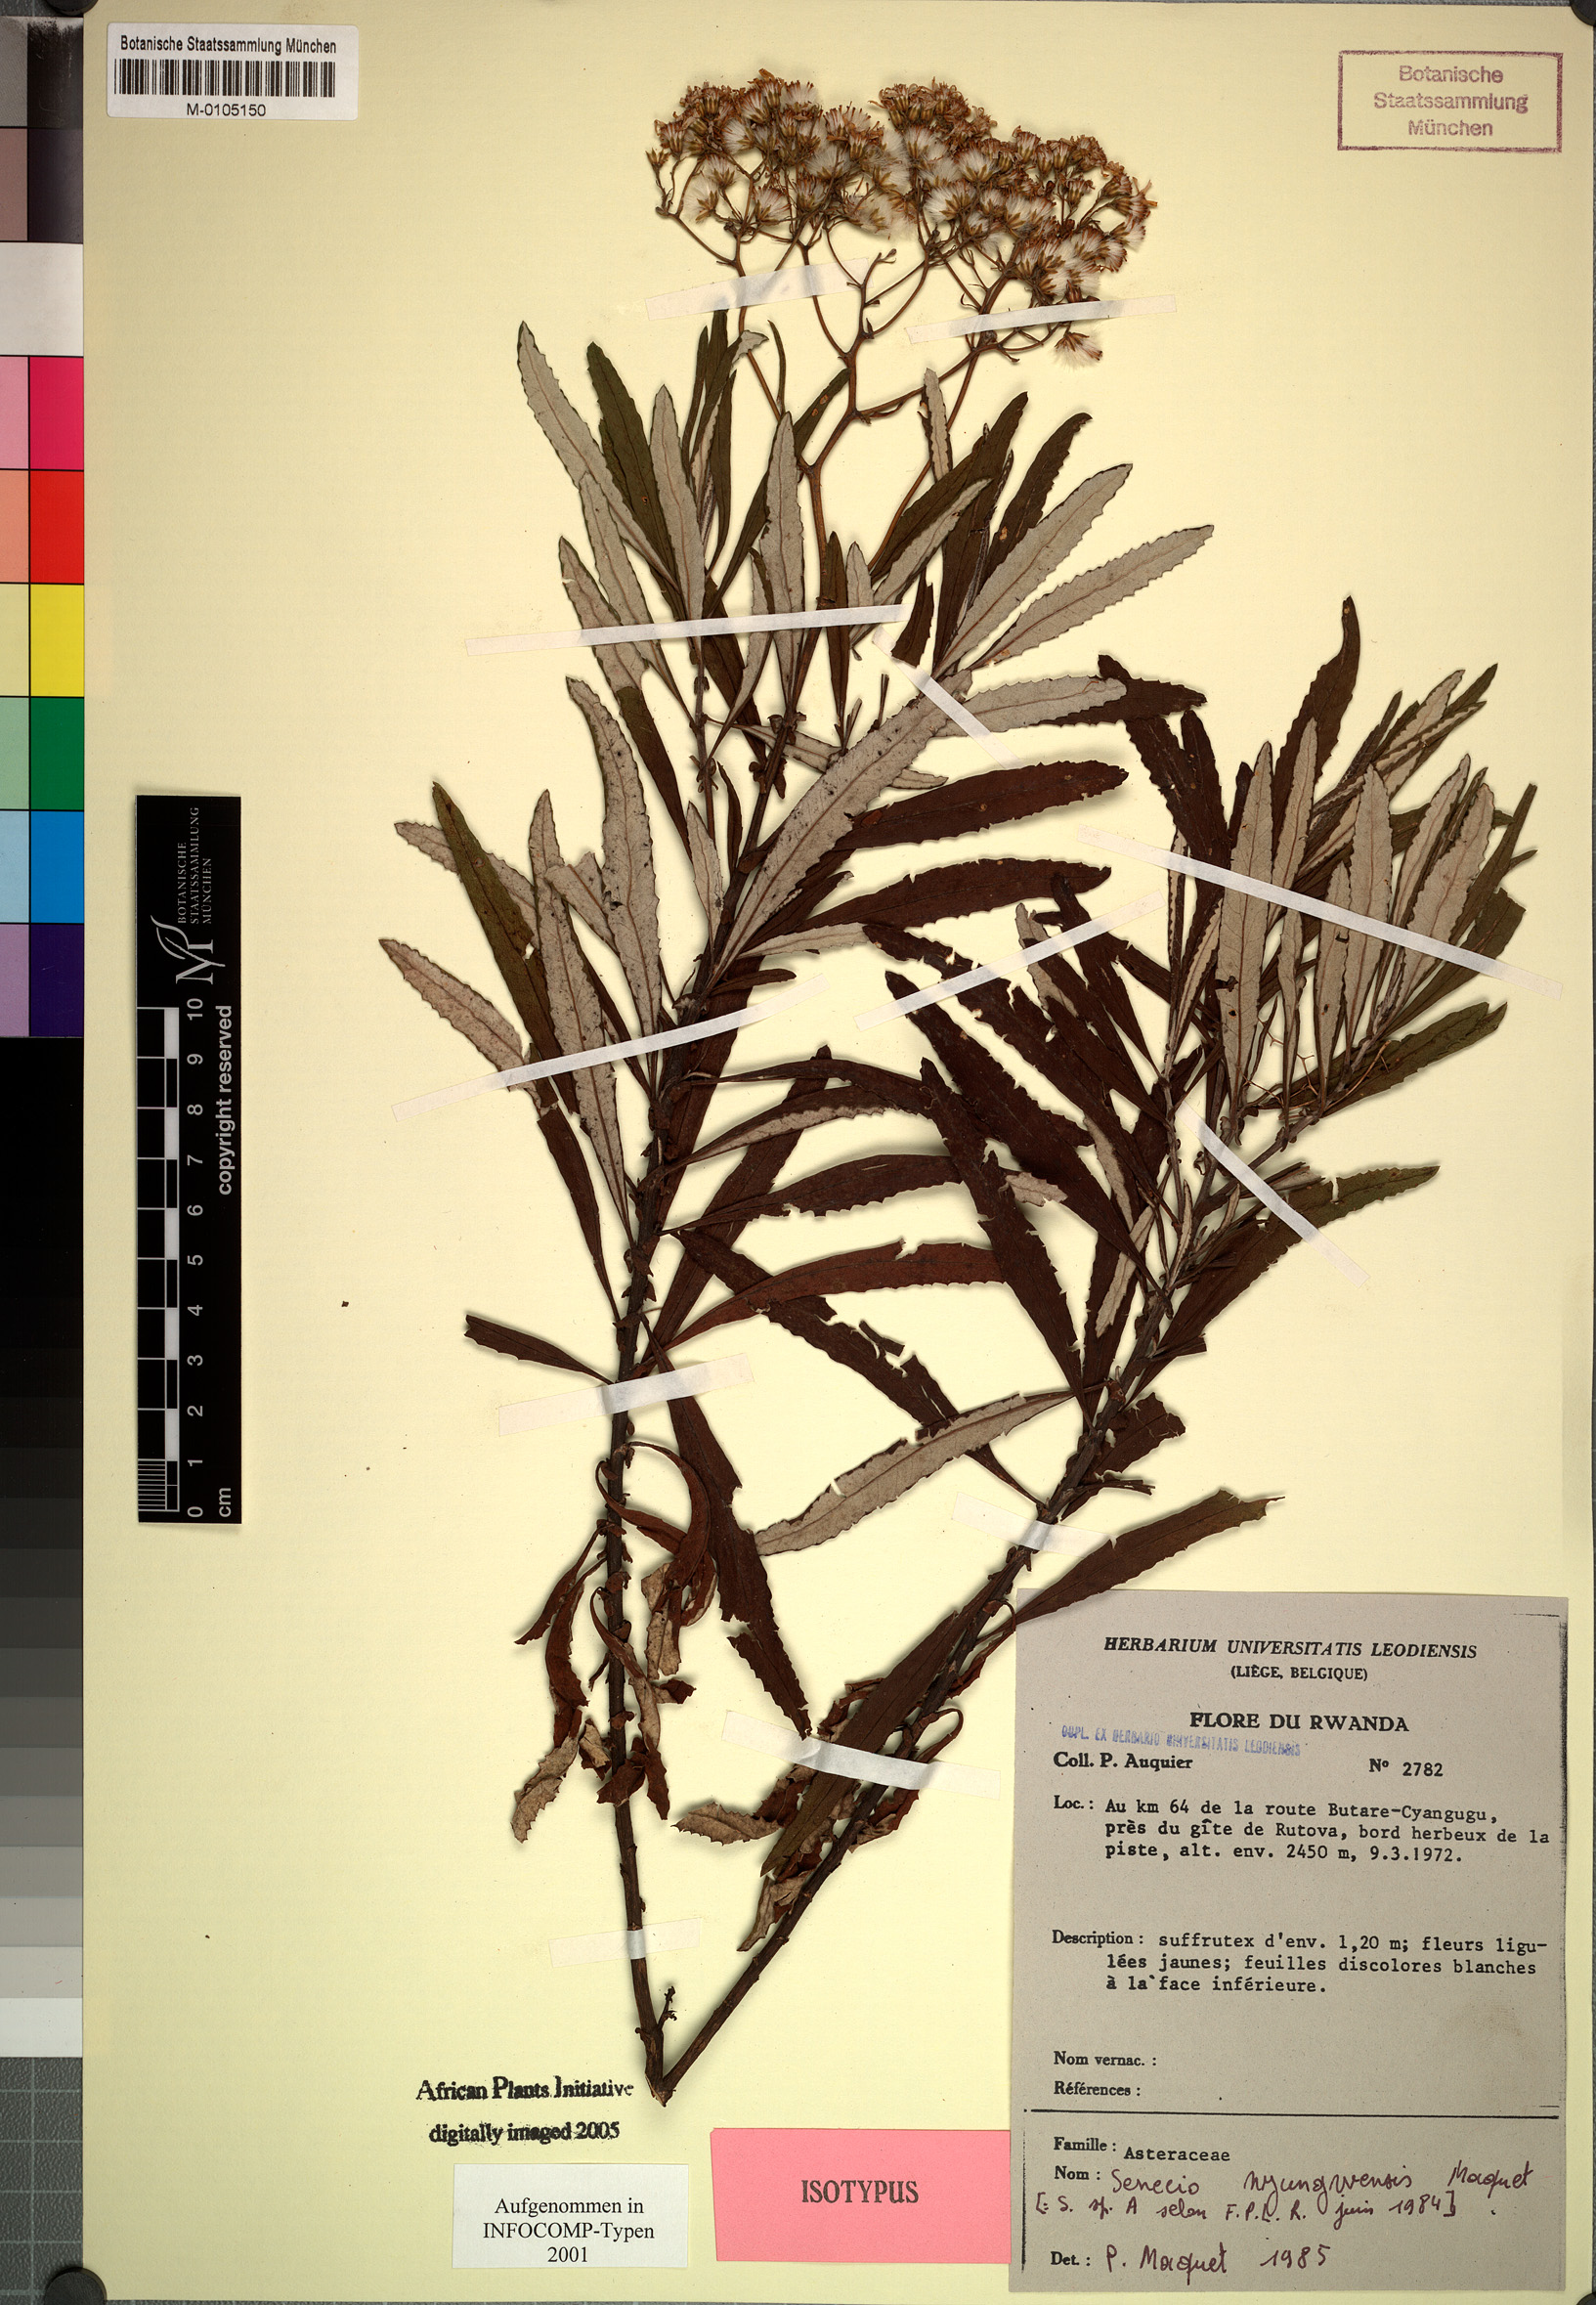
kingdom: Plantae
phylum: Tracheophyta
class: Magnoliopsida
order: Asterales
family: Asteraceae
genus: Senecio
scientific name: Senecio nyungwensis
